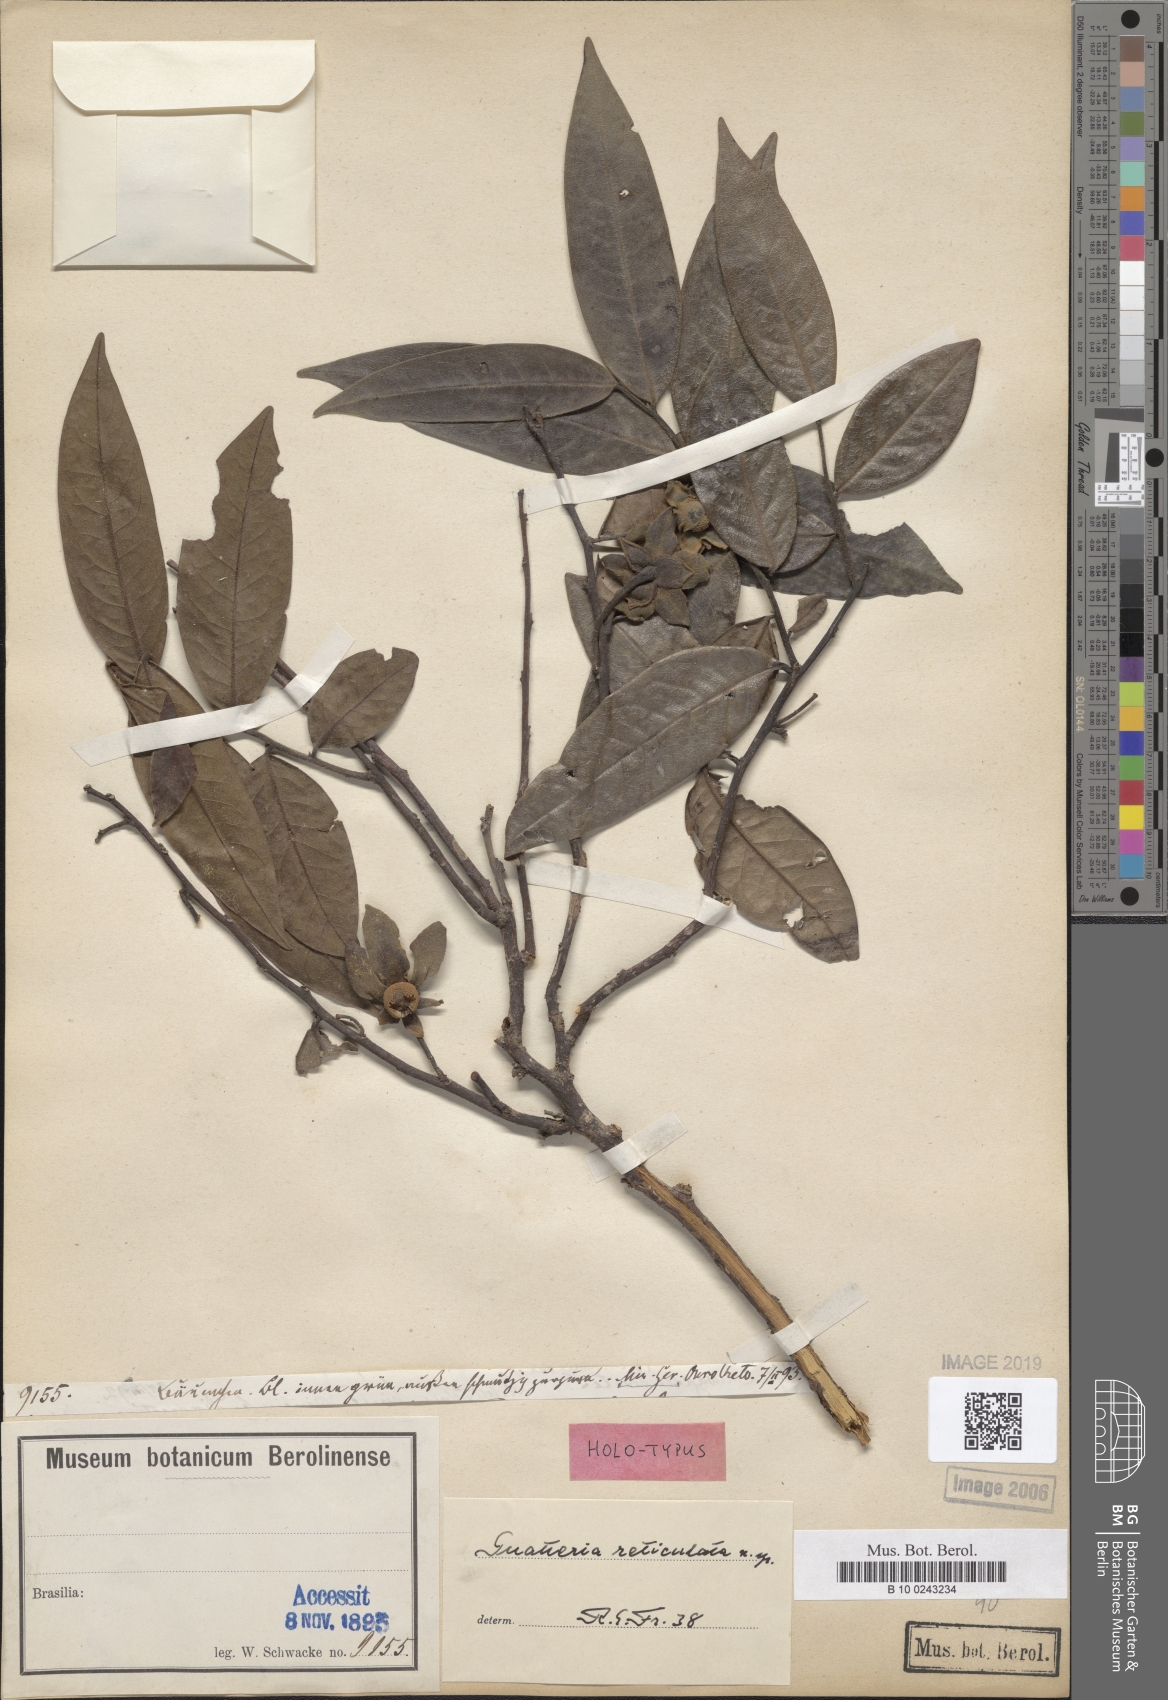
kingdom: Plantae
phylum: Tracheophyta
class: Magnoliopsida
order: Magnoliales
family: Annonaceae
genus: Guatteria
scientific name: Guatteria campestris
